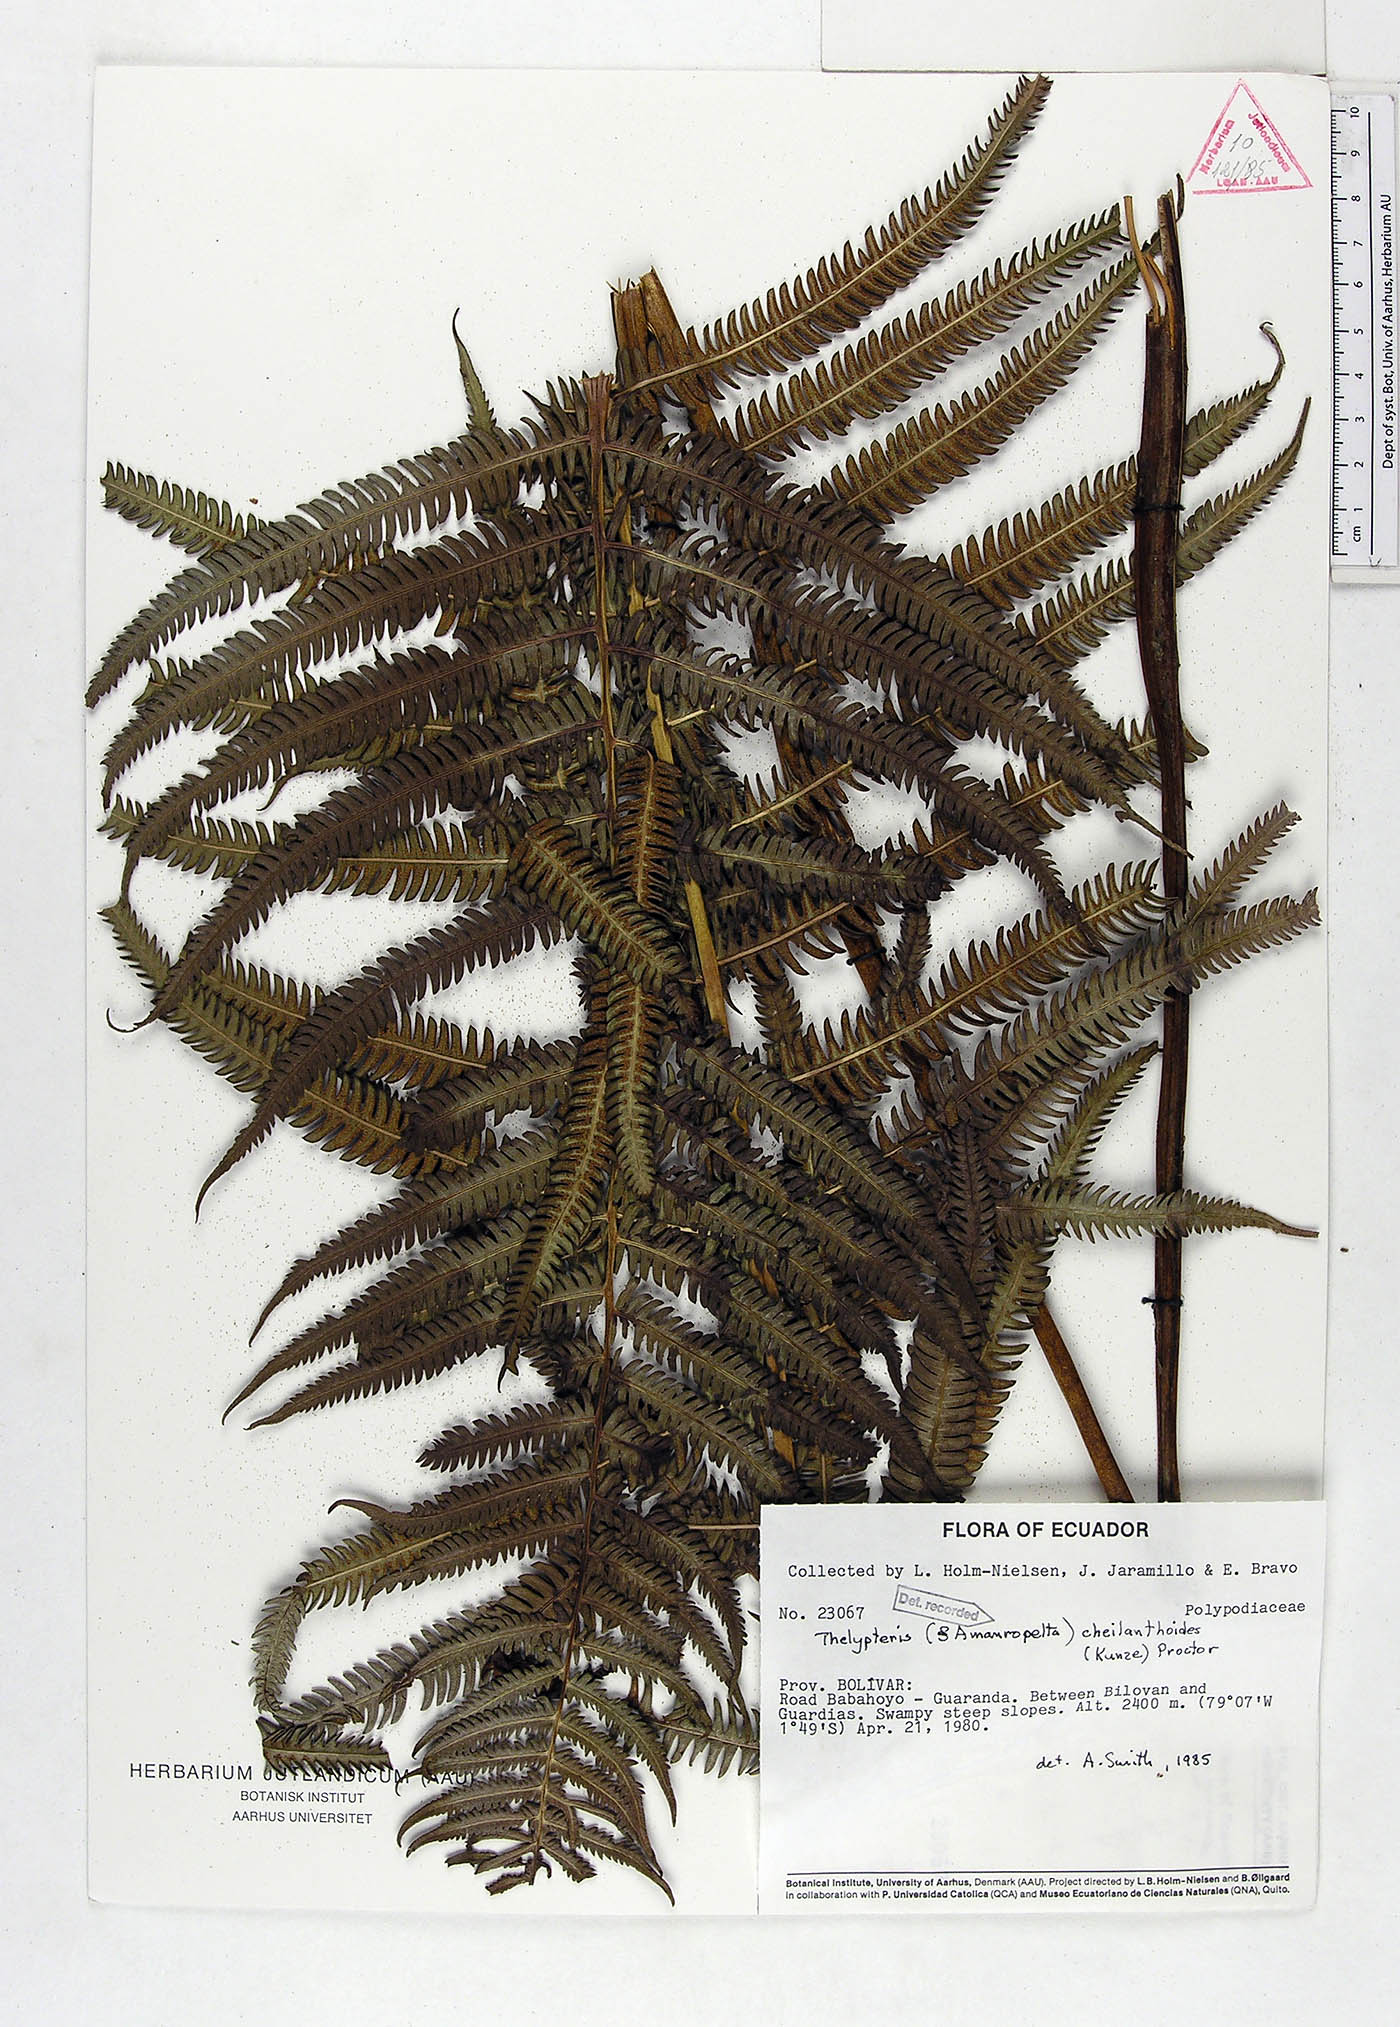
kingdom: Plantae
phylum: Tracheophyta
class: Polypodiopsida
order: Polypodiales
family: Thelypteridaceae
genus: Amauropelta
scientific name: Amauropelta cheilanthoides
